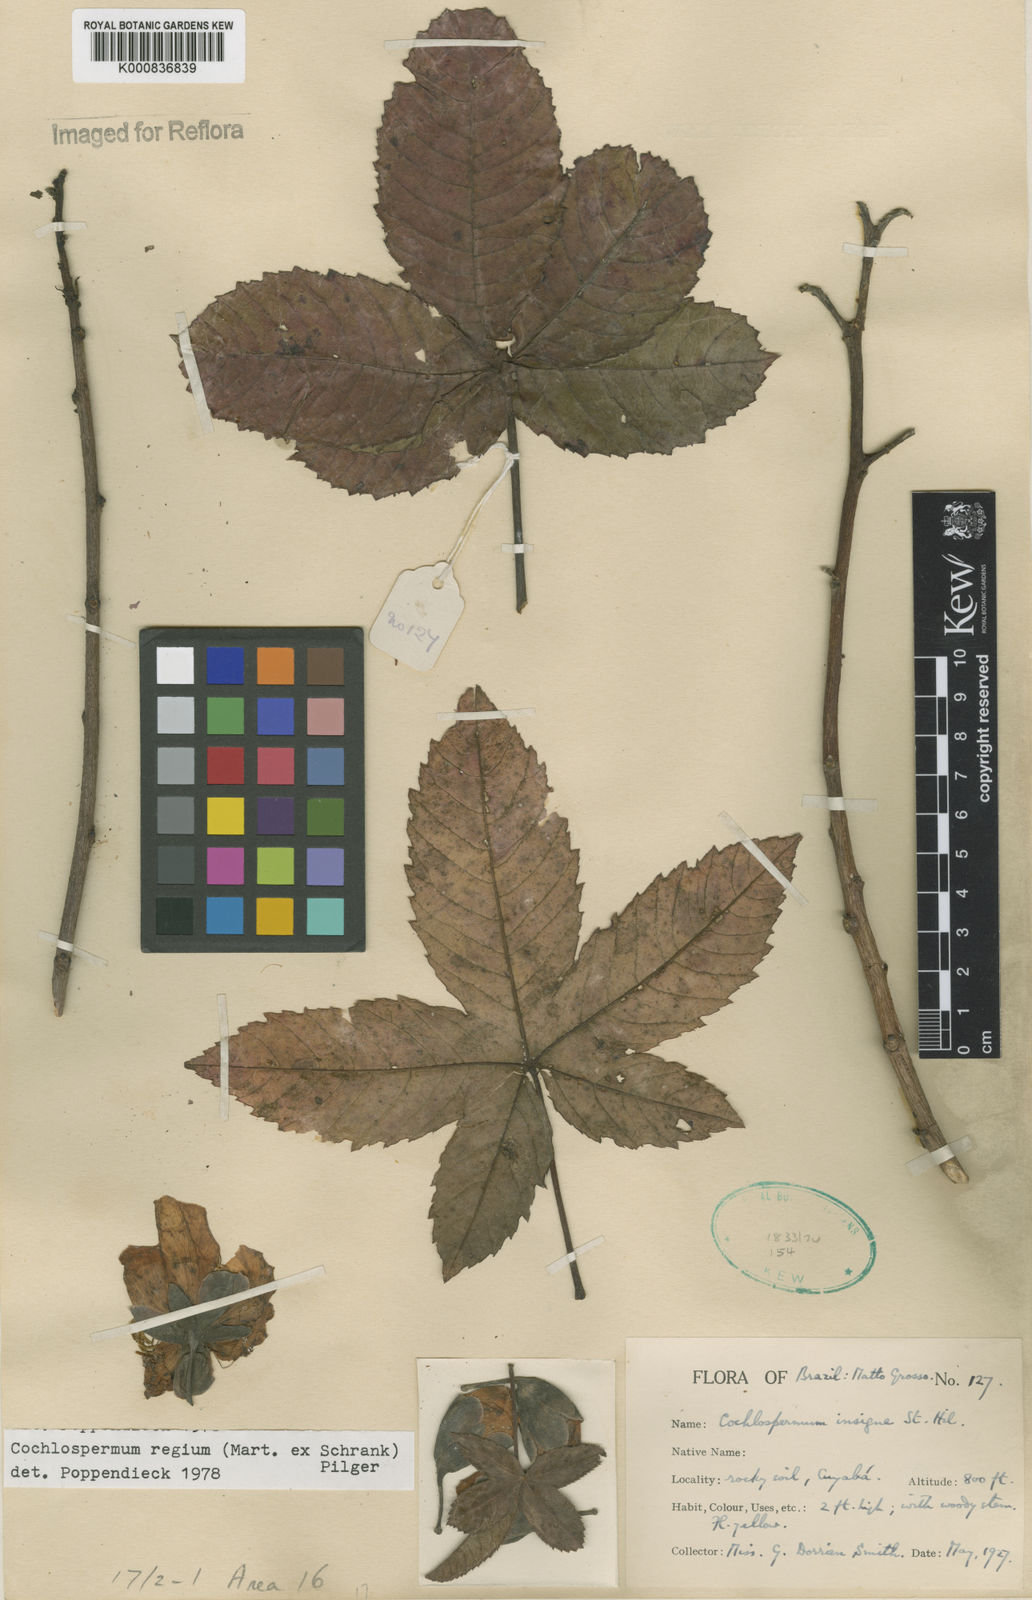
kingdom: Plantae
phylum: Tracheophyta
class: Magnoliopsida
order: Malvales
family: Cochlospermaceae
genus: Cochlospermum
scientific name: Cochlospermum regium
